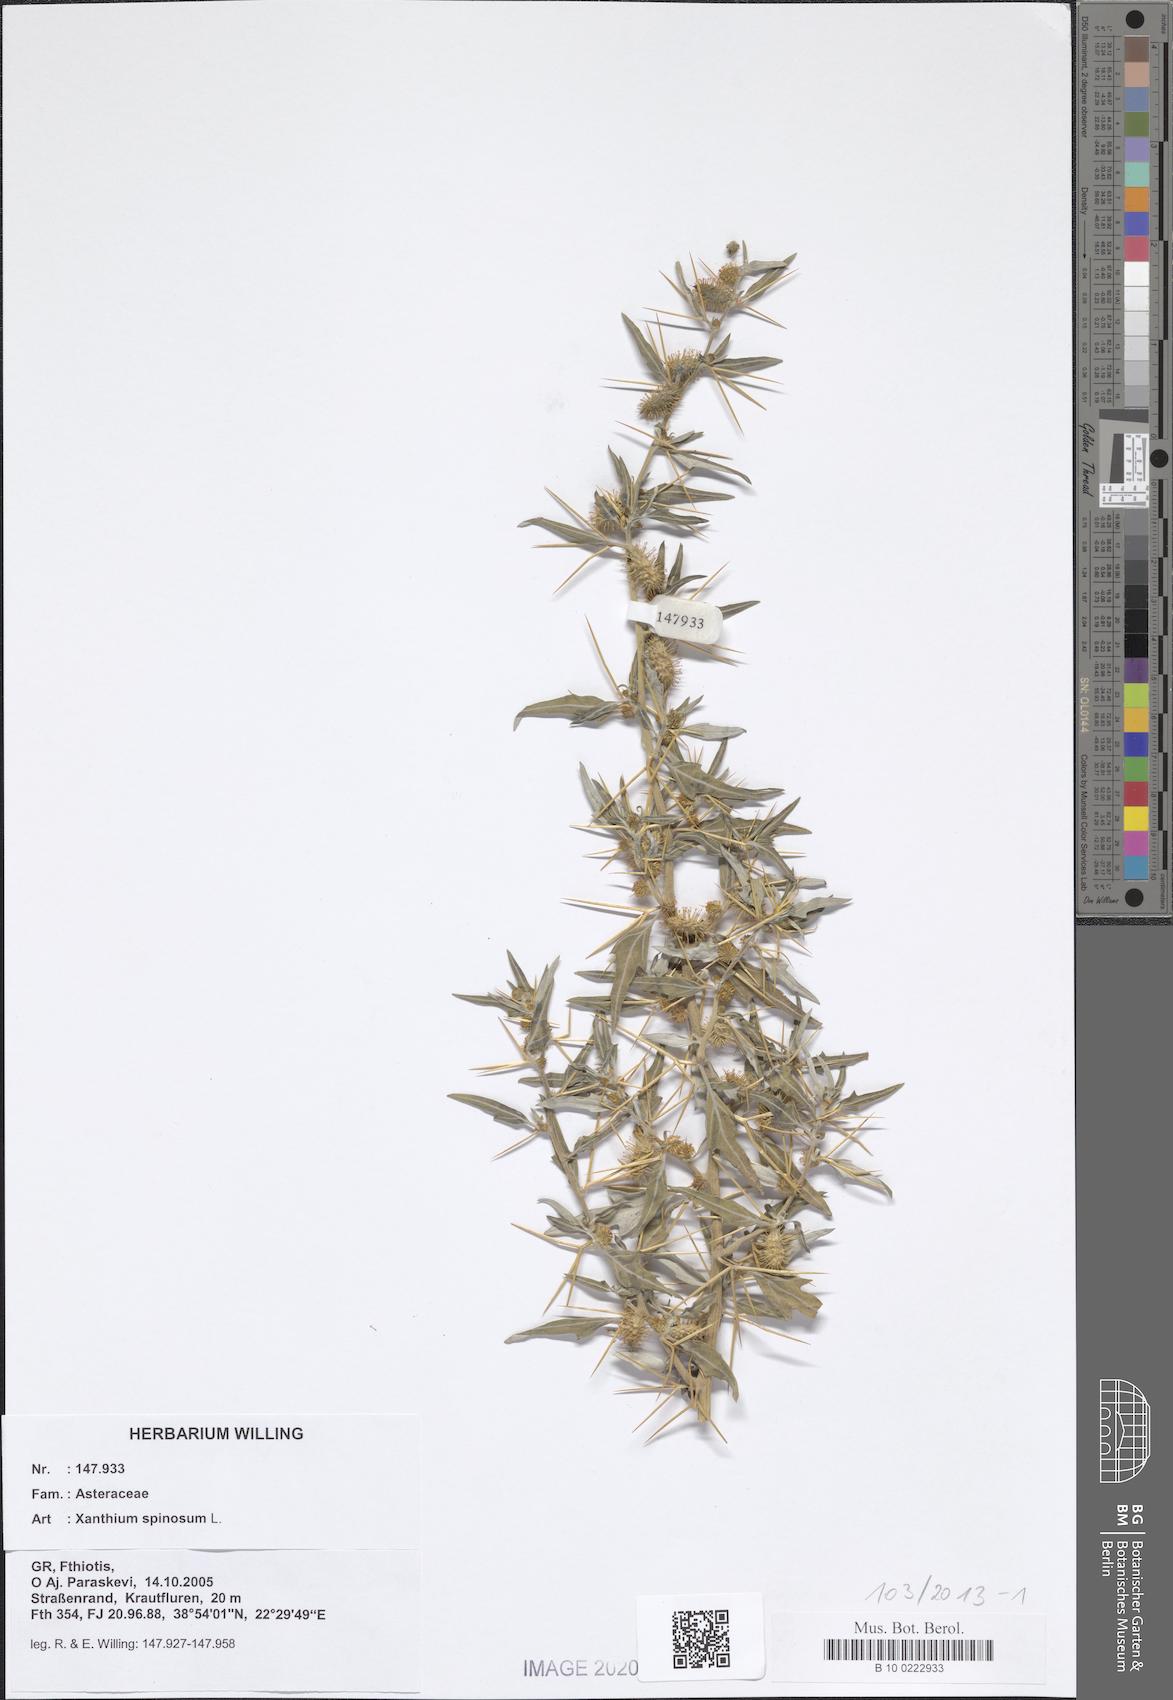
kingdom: Plantae
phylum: Tracheophyta
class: Magnoliopsida
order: Asterales
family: Asteraceae
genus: Xanthium
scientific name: Xanthium spinosum
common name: Spiny cocklebur
